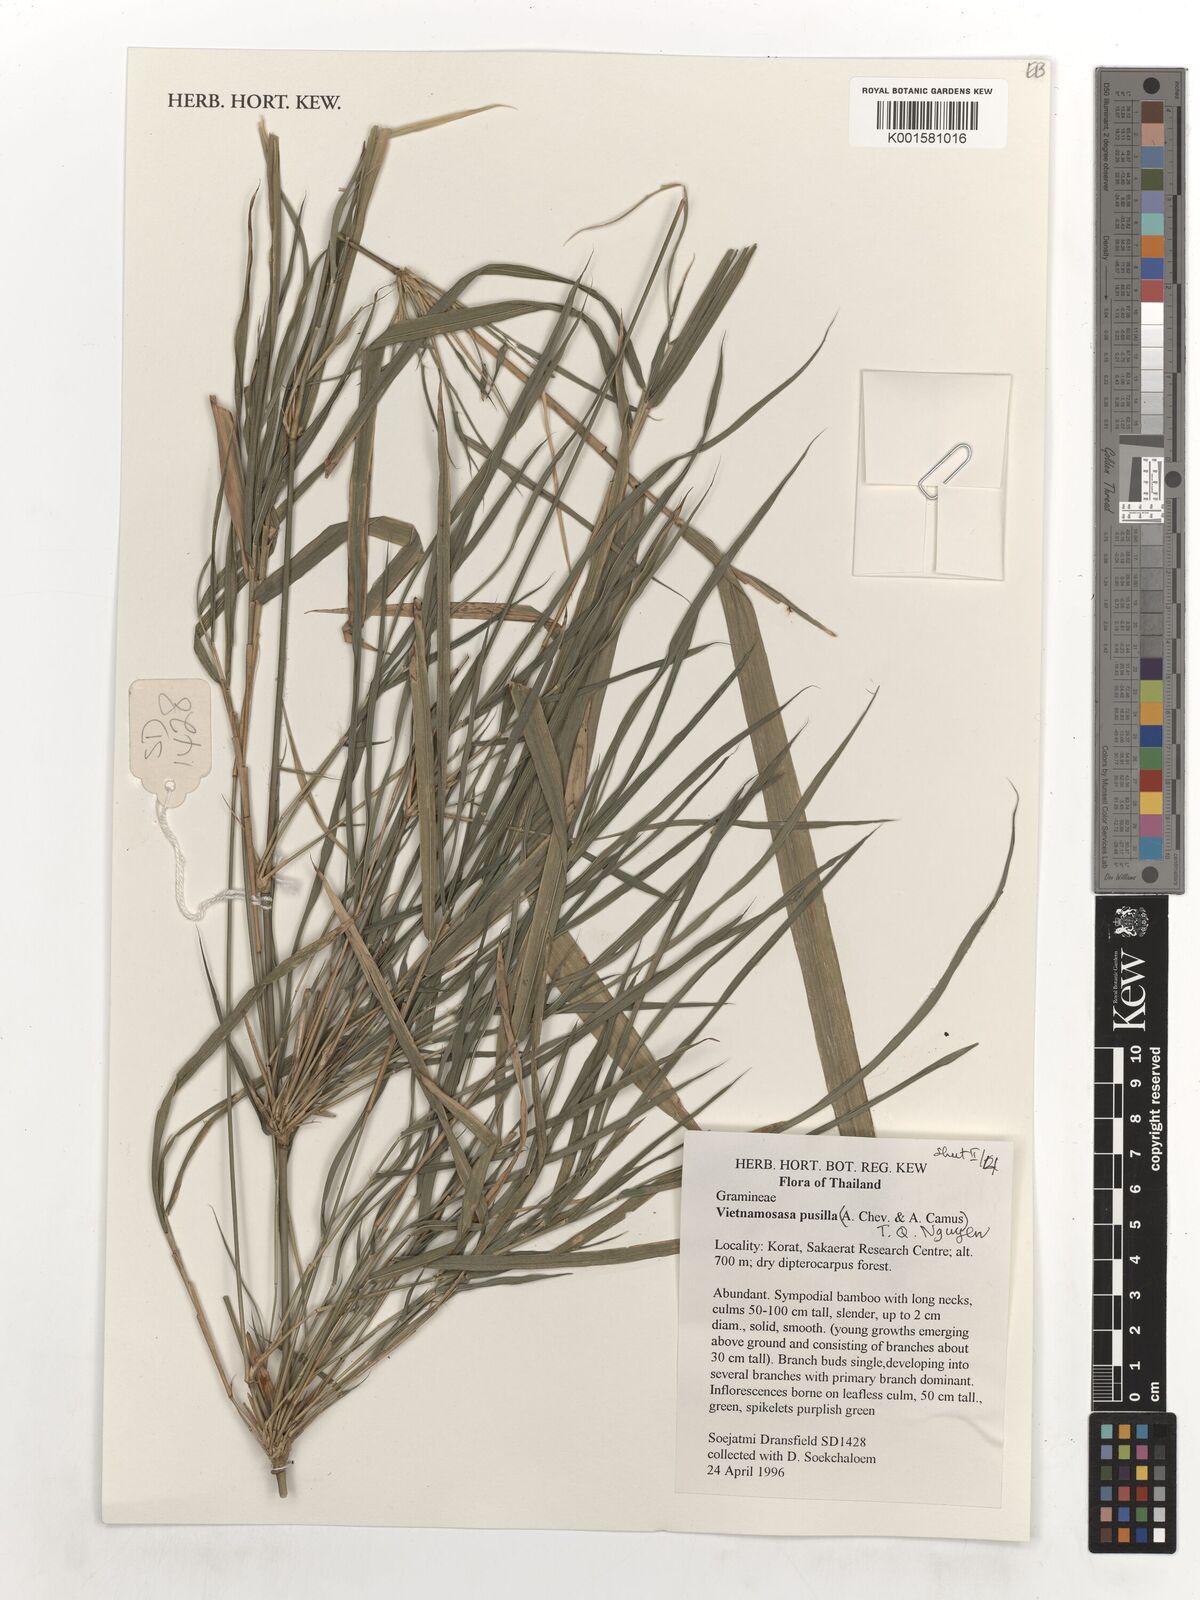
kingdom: Plantae
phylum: Tracheophyta
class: Liliopsida
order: Poales
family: Poaceae
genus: Vietnamosasa
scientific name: Vietnamosasa pusilla
